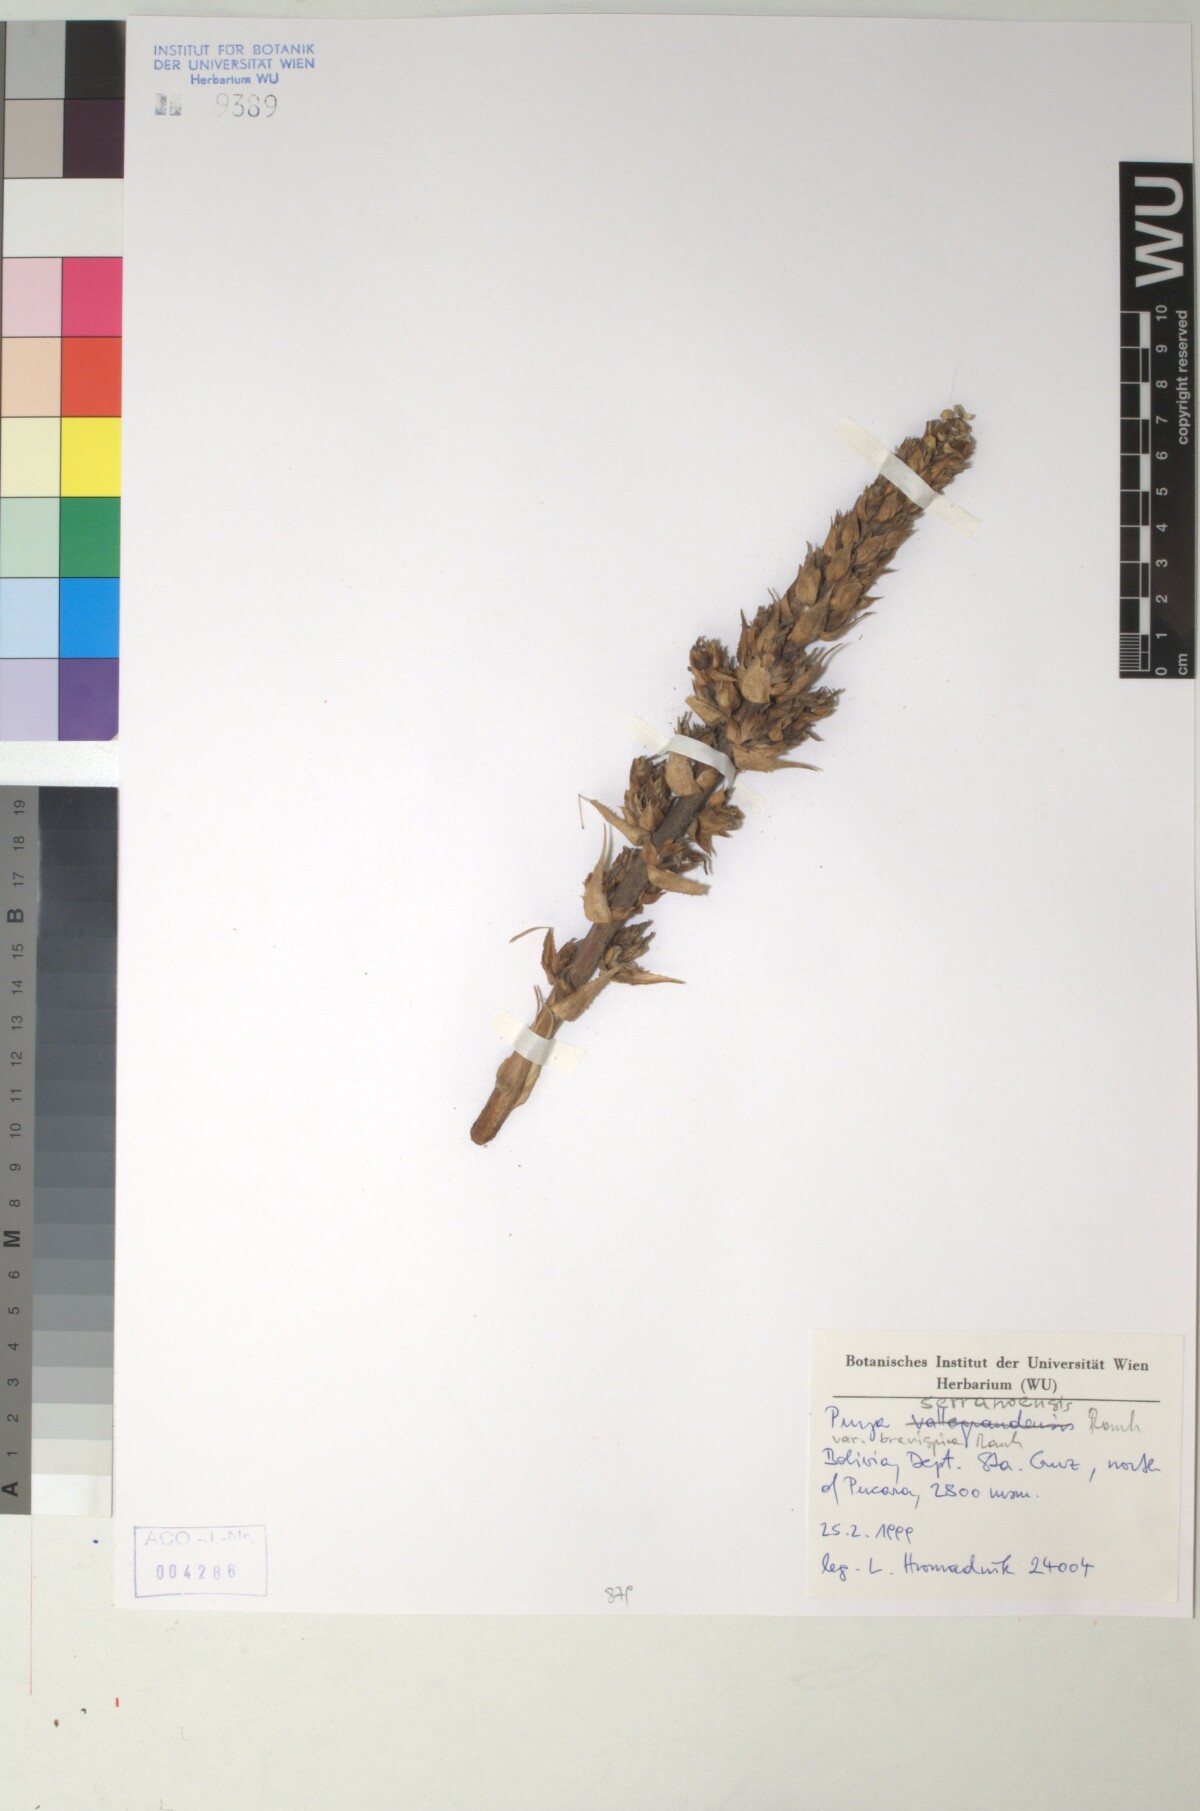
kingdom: Plantae
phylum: Tracheophyta
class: Liliopsida
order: Poales
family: Bromeliaceae
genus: Puya
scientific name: Puya serranoensis
